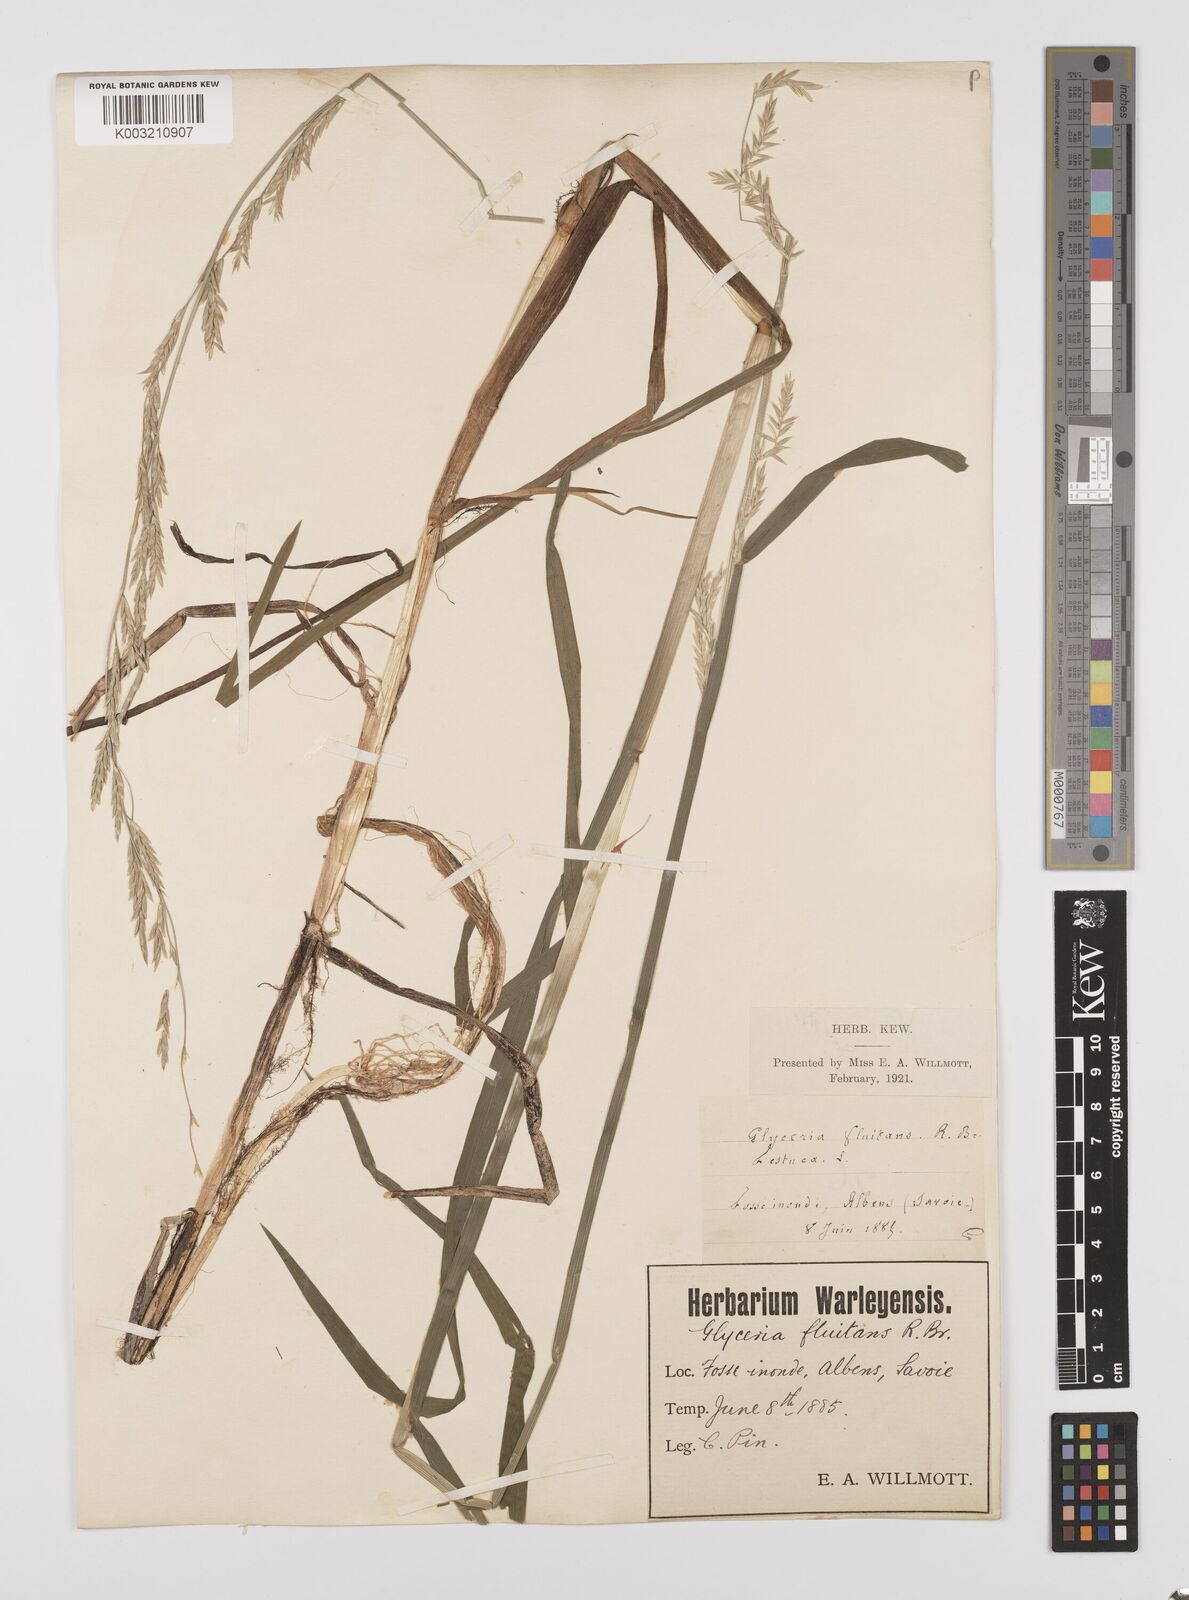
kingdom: Plantae
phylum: Tracheophyta
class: Liliopsida
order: Poales
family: Poaceae
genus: Glyceria
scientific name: Glyceria fluitans
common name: Floating sweet-grass
